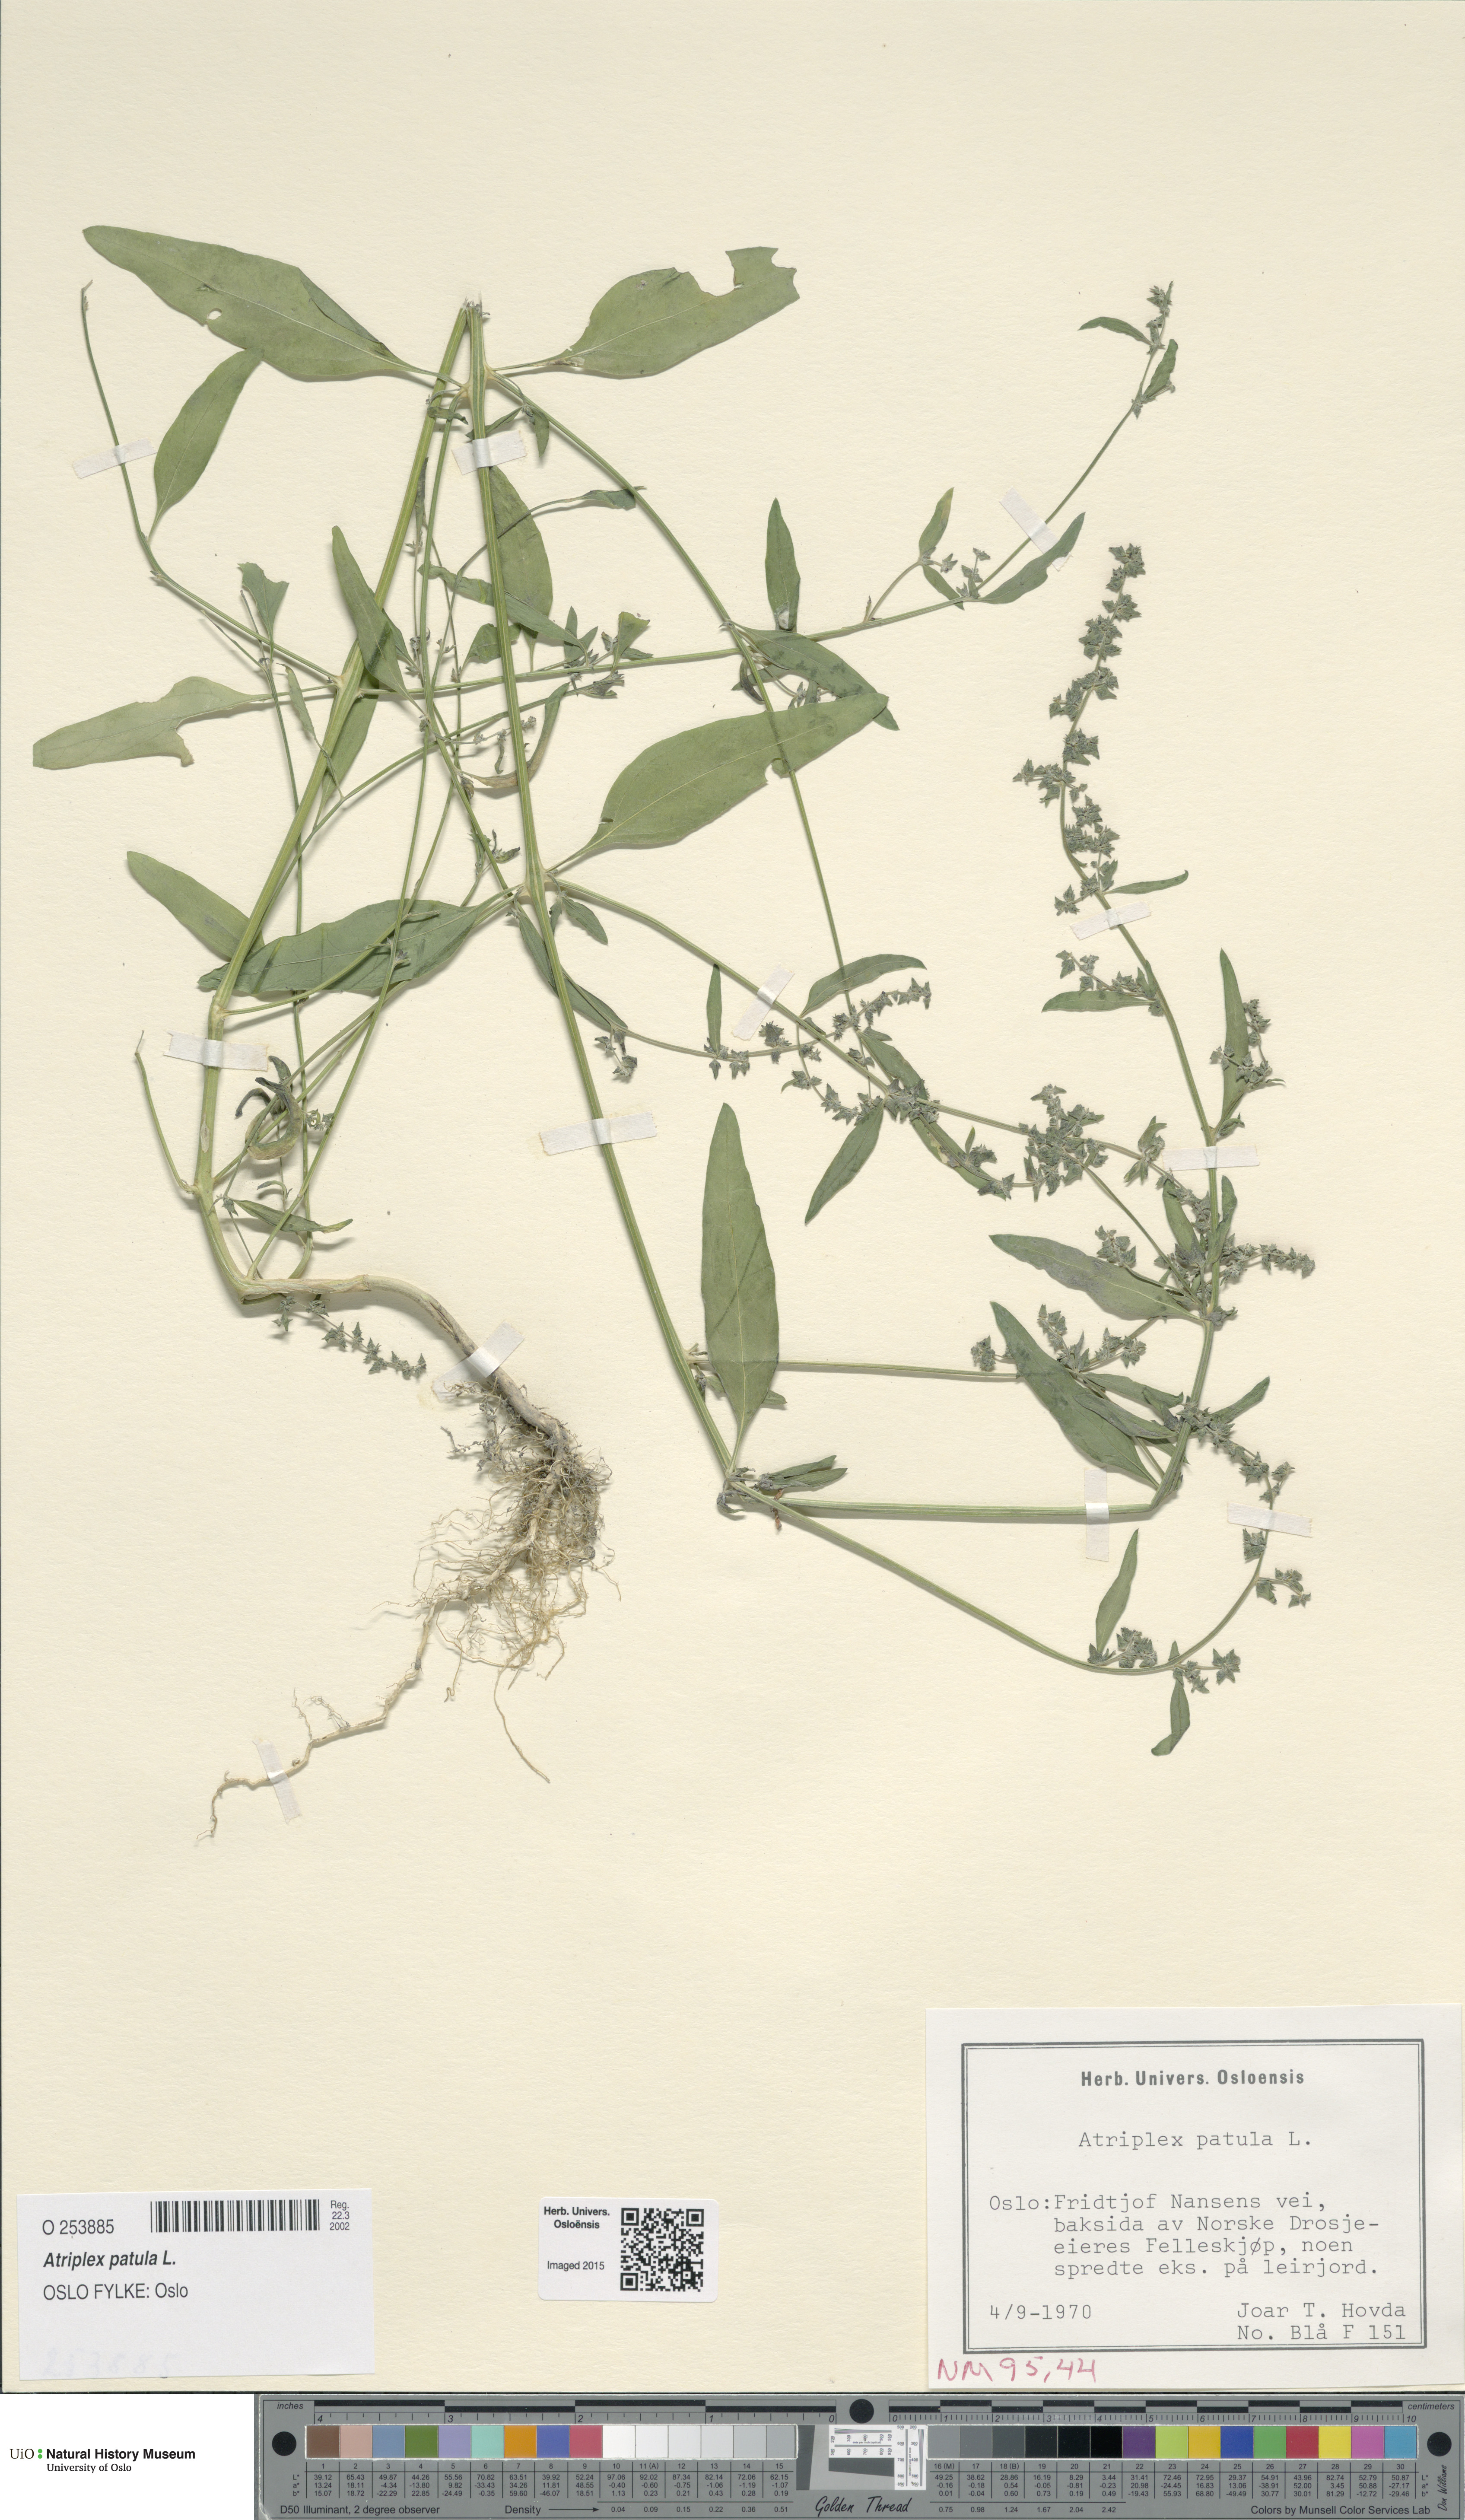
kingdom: Plantae
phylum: Tracheophyta
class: Magnoliopsida
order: Caryophyllales
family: Amaranthaceae
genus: Atriplex
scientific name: Atriplex patula
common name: Common orache
